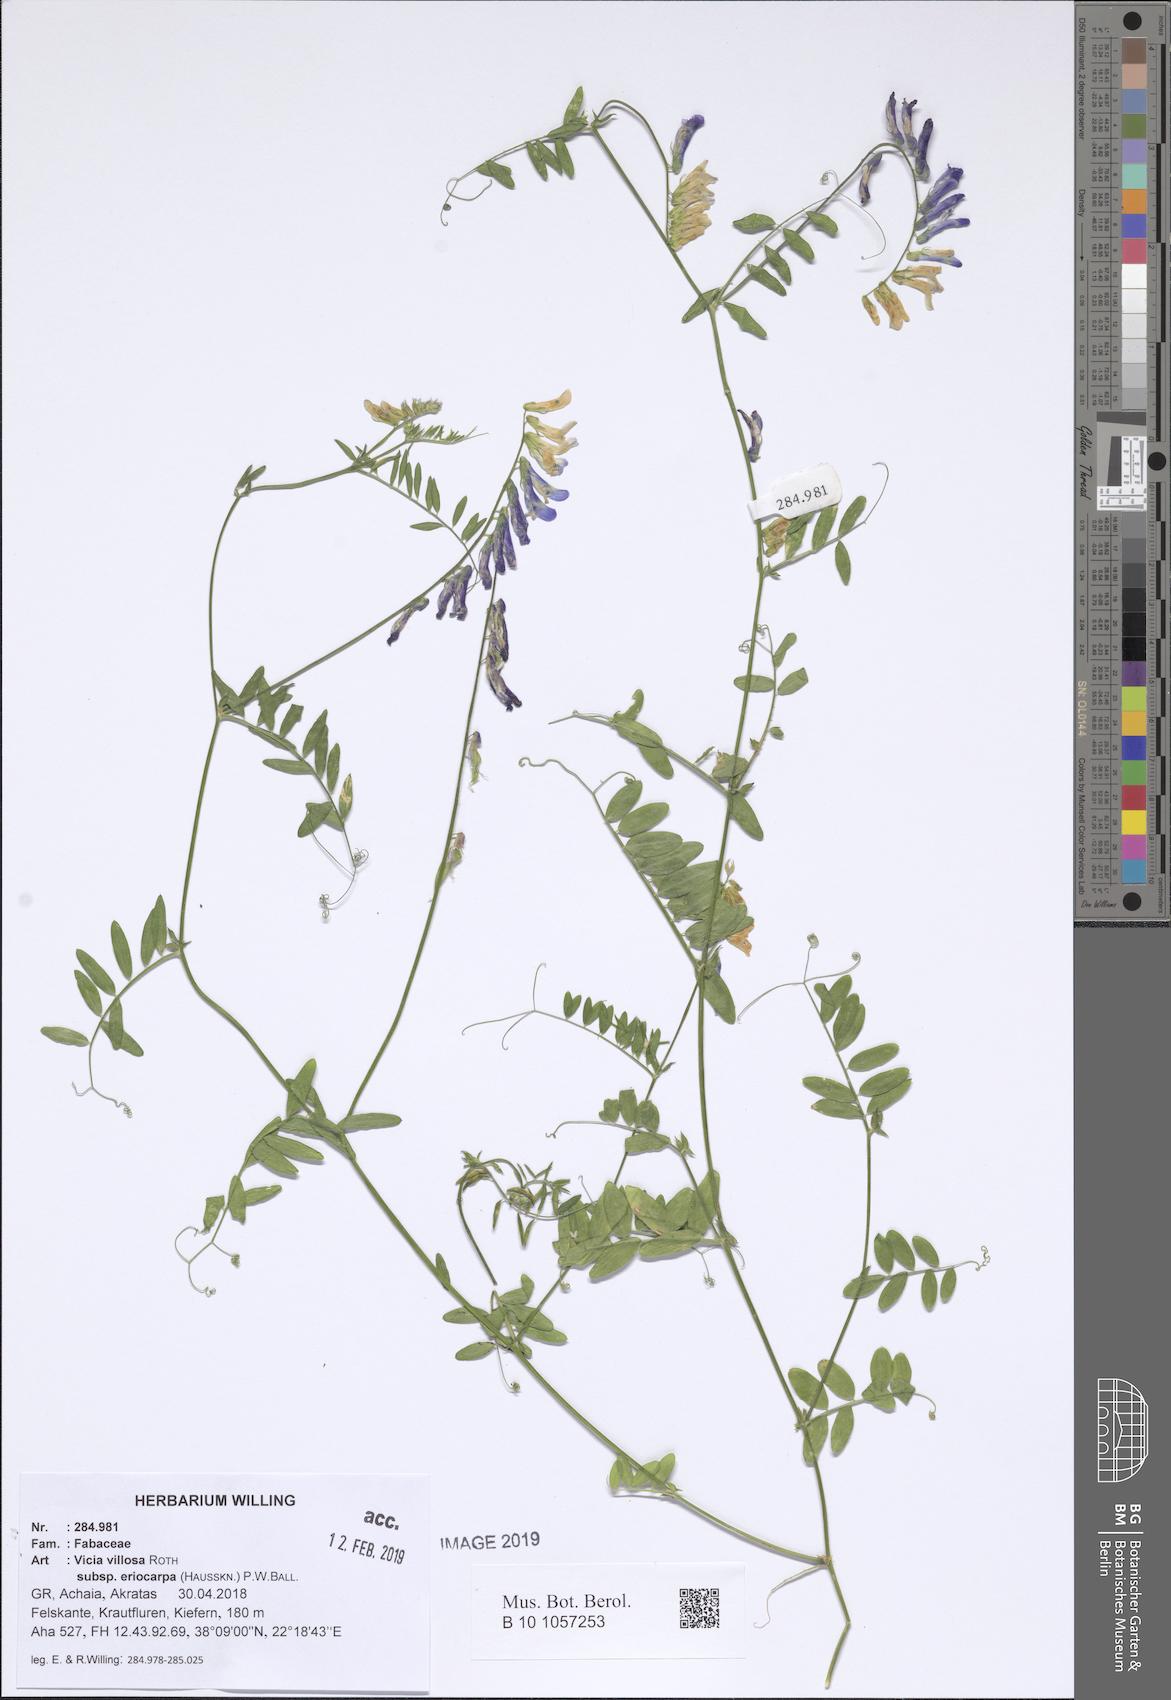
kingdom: Plantae
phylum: Tracheophyta
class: Magnoliopsida
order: Fabales
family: Fabaceae
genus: Vicia
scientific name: Vicia eriocarpa
